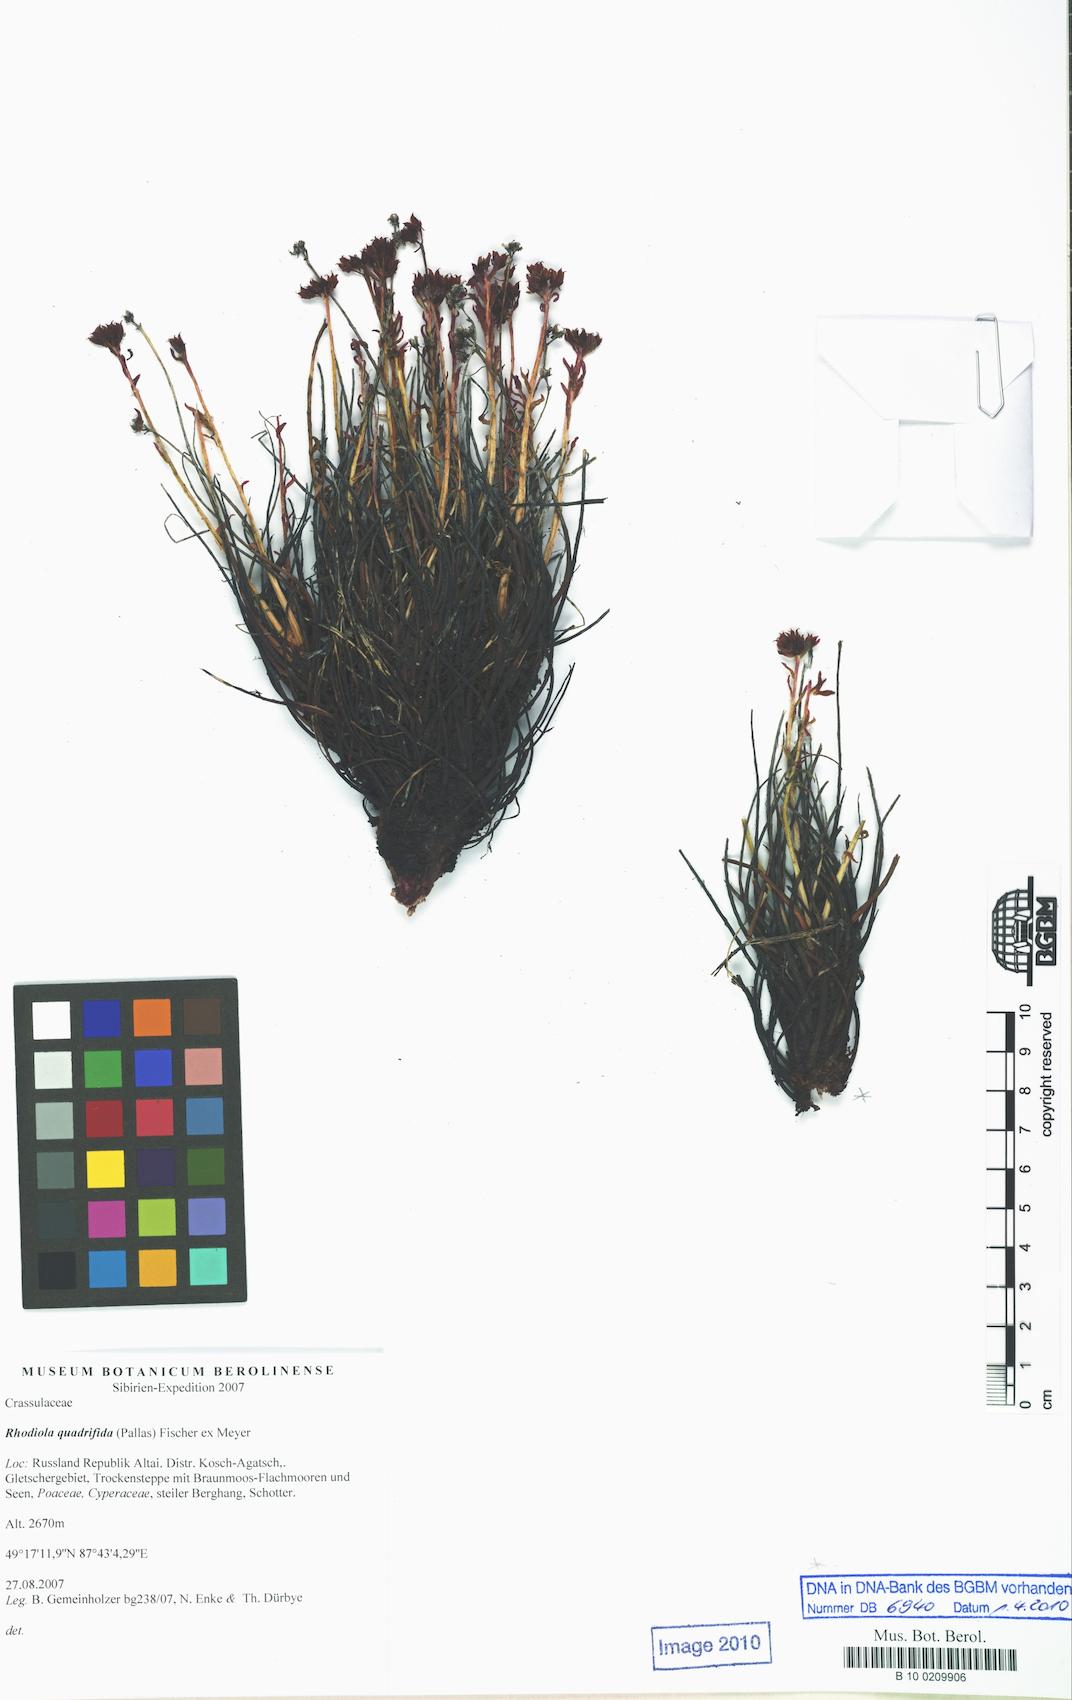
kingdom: Plantae
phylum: Tracheophyta
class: Magnoliopsida
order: Saxifragales
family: Crassulaceae
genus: Rhodiola
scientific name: Rhodiola quadrifida
